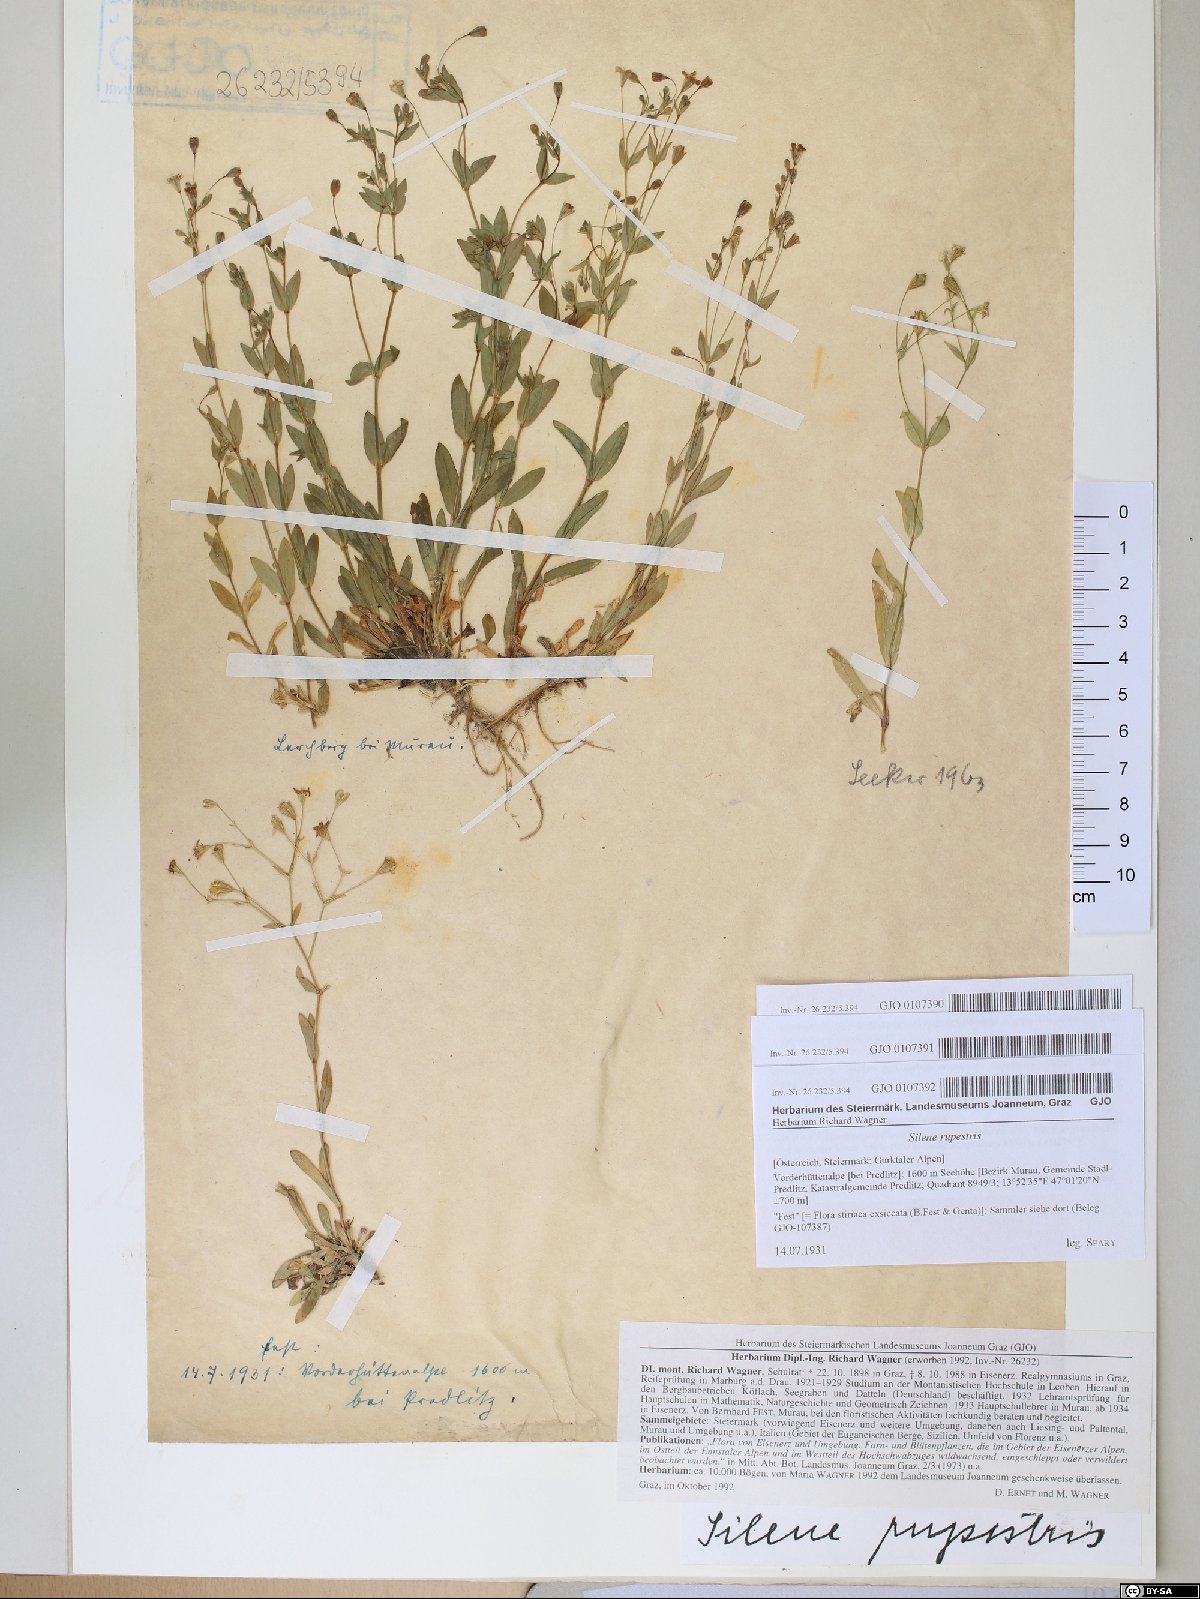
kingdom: Plantae
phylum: Tracheophyta
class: Magnoliopsida
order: Caryophyllales
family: Caryophyllaceae
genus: Atocion
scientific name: Atocion rupestre
